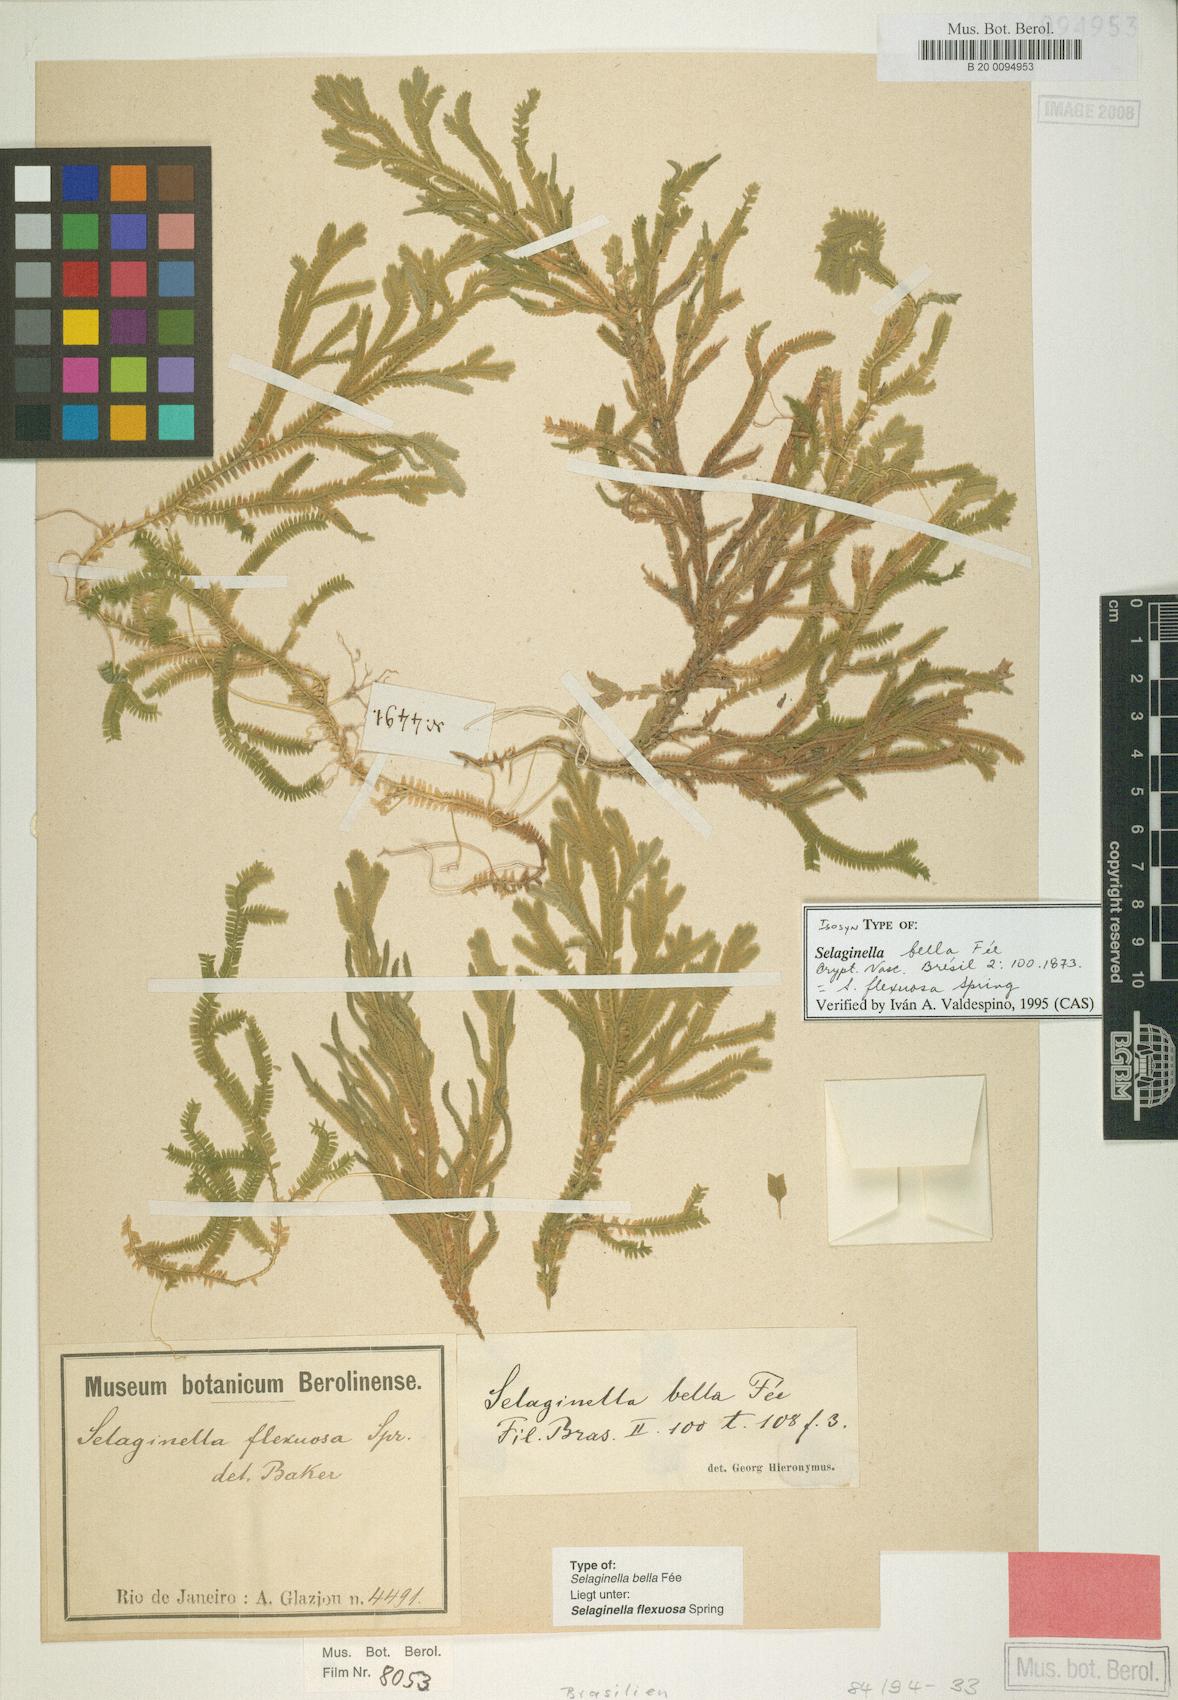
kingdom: Plantae
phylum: Tracheophyta
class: Lycopodiopsida
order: Selaginellales
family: Selaginellaceae
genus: Selaginella
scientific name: Selaginella flexuosa
